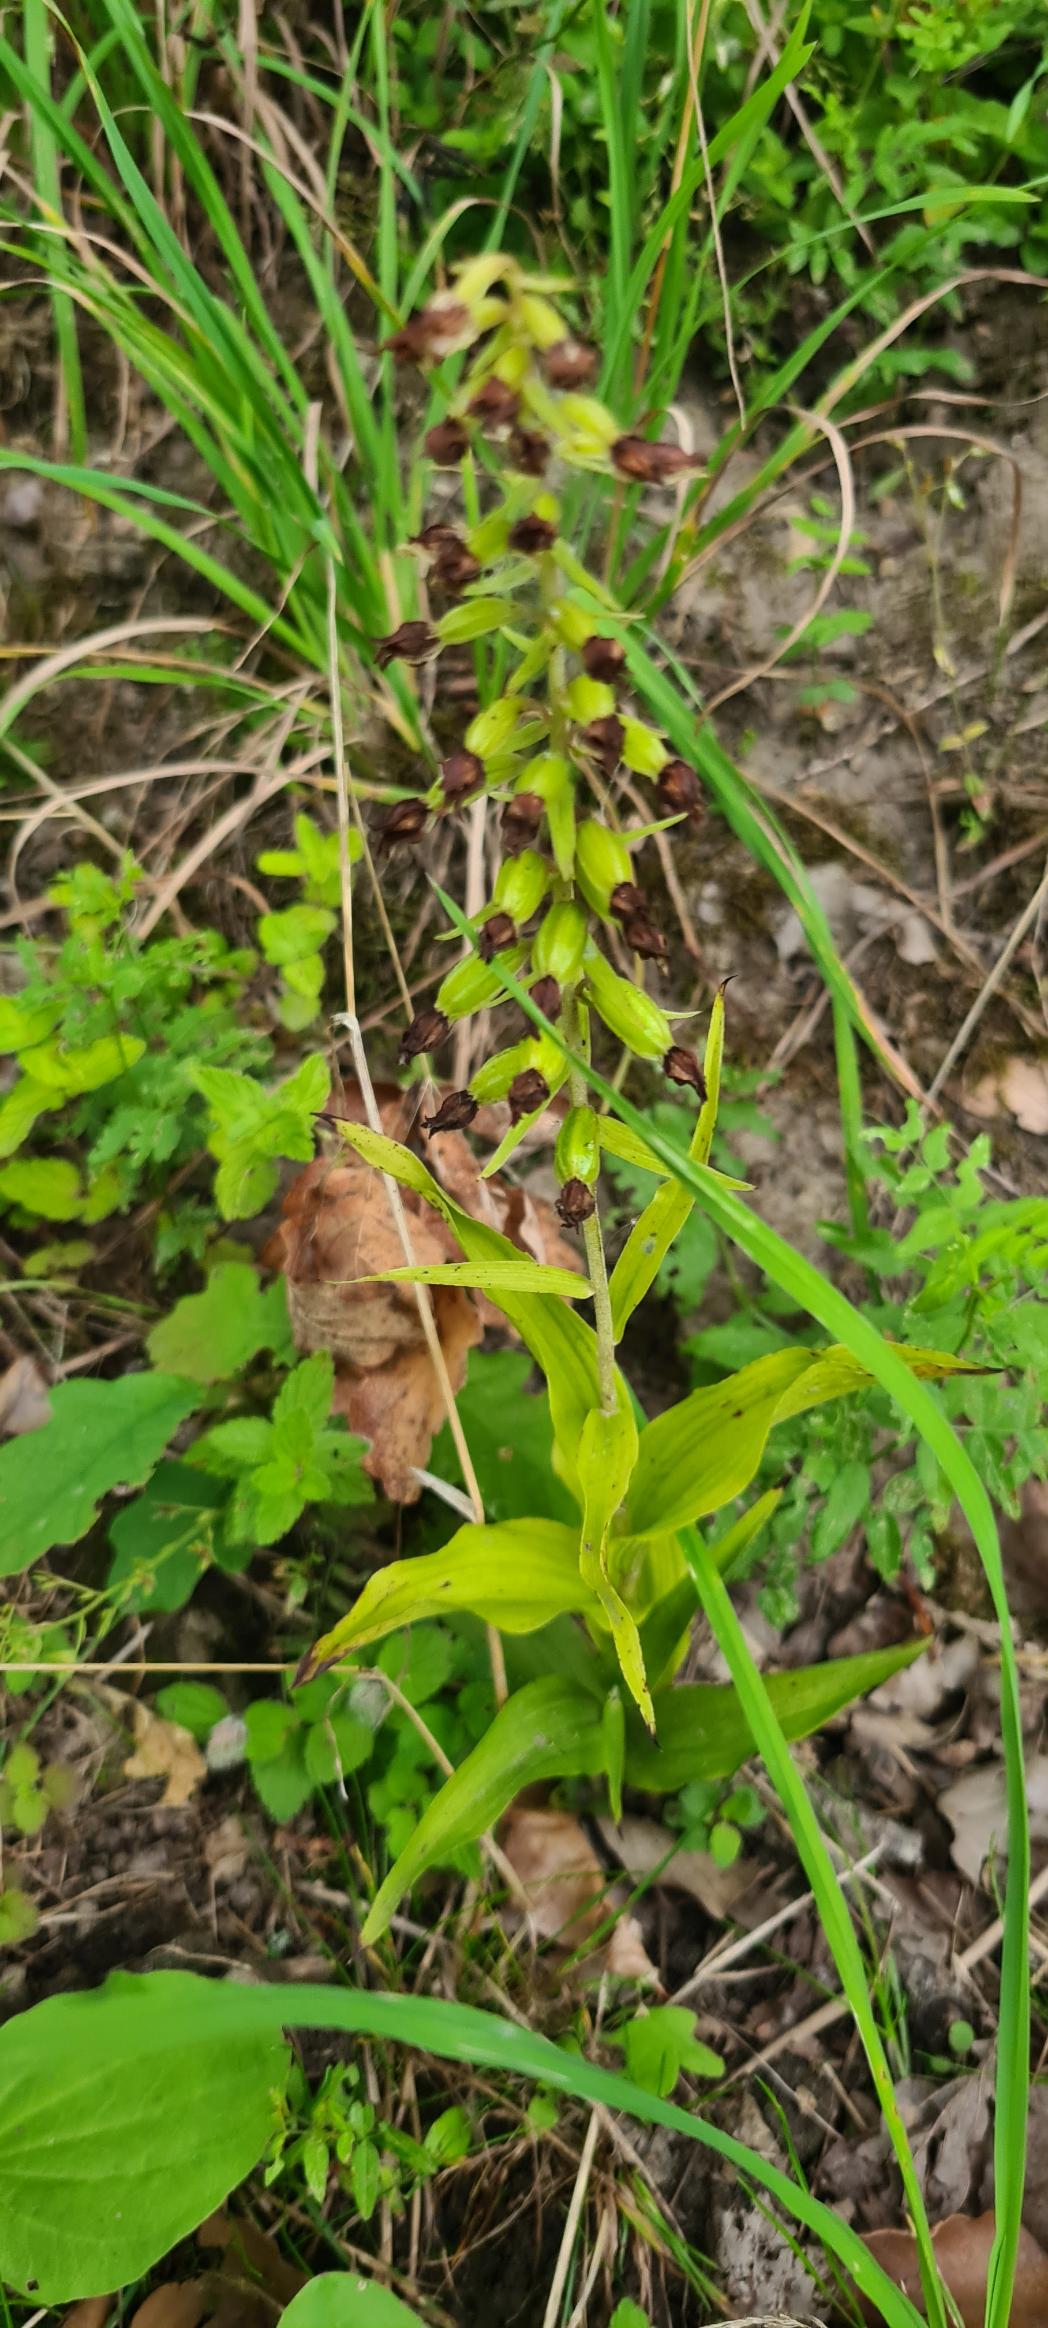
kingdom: Plantae
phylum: Tracheophyta
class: Liliopsida
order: Asparagales
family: Orchidaceae
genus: Epipactis
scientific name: Epipactis helleborine
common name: Skov-hullæbe
